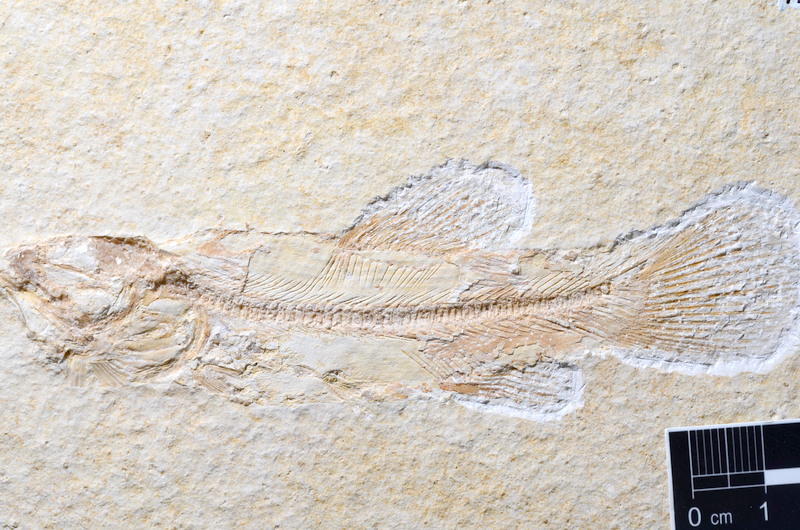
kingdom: Animalia
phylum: Chordata
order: Amiiformes
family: Amiidae
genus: Amiopsis
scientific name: Amiopsis lepidota
